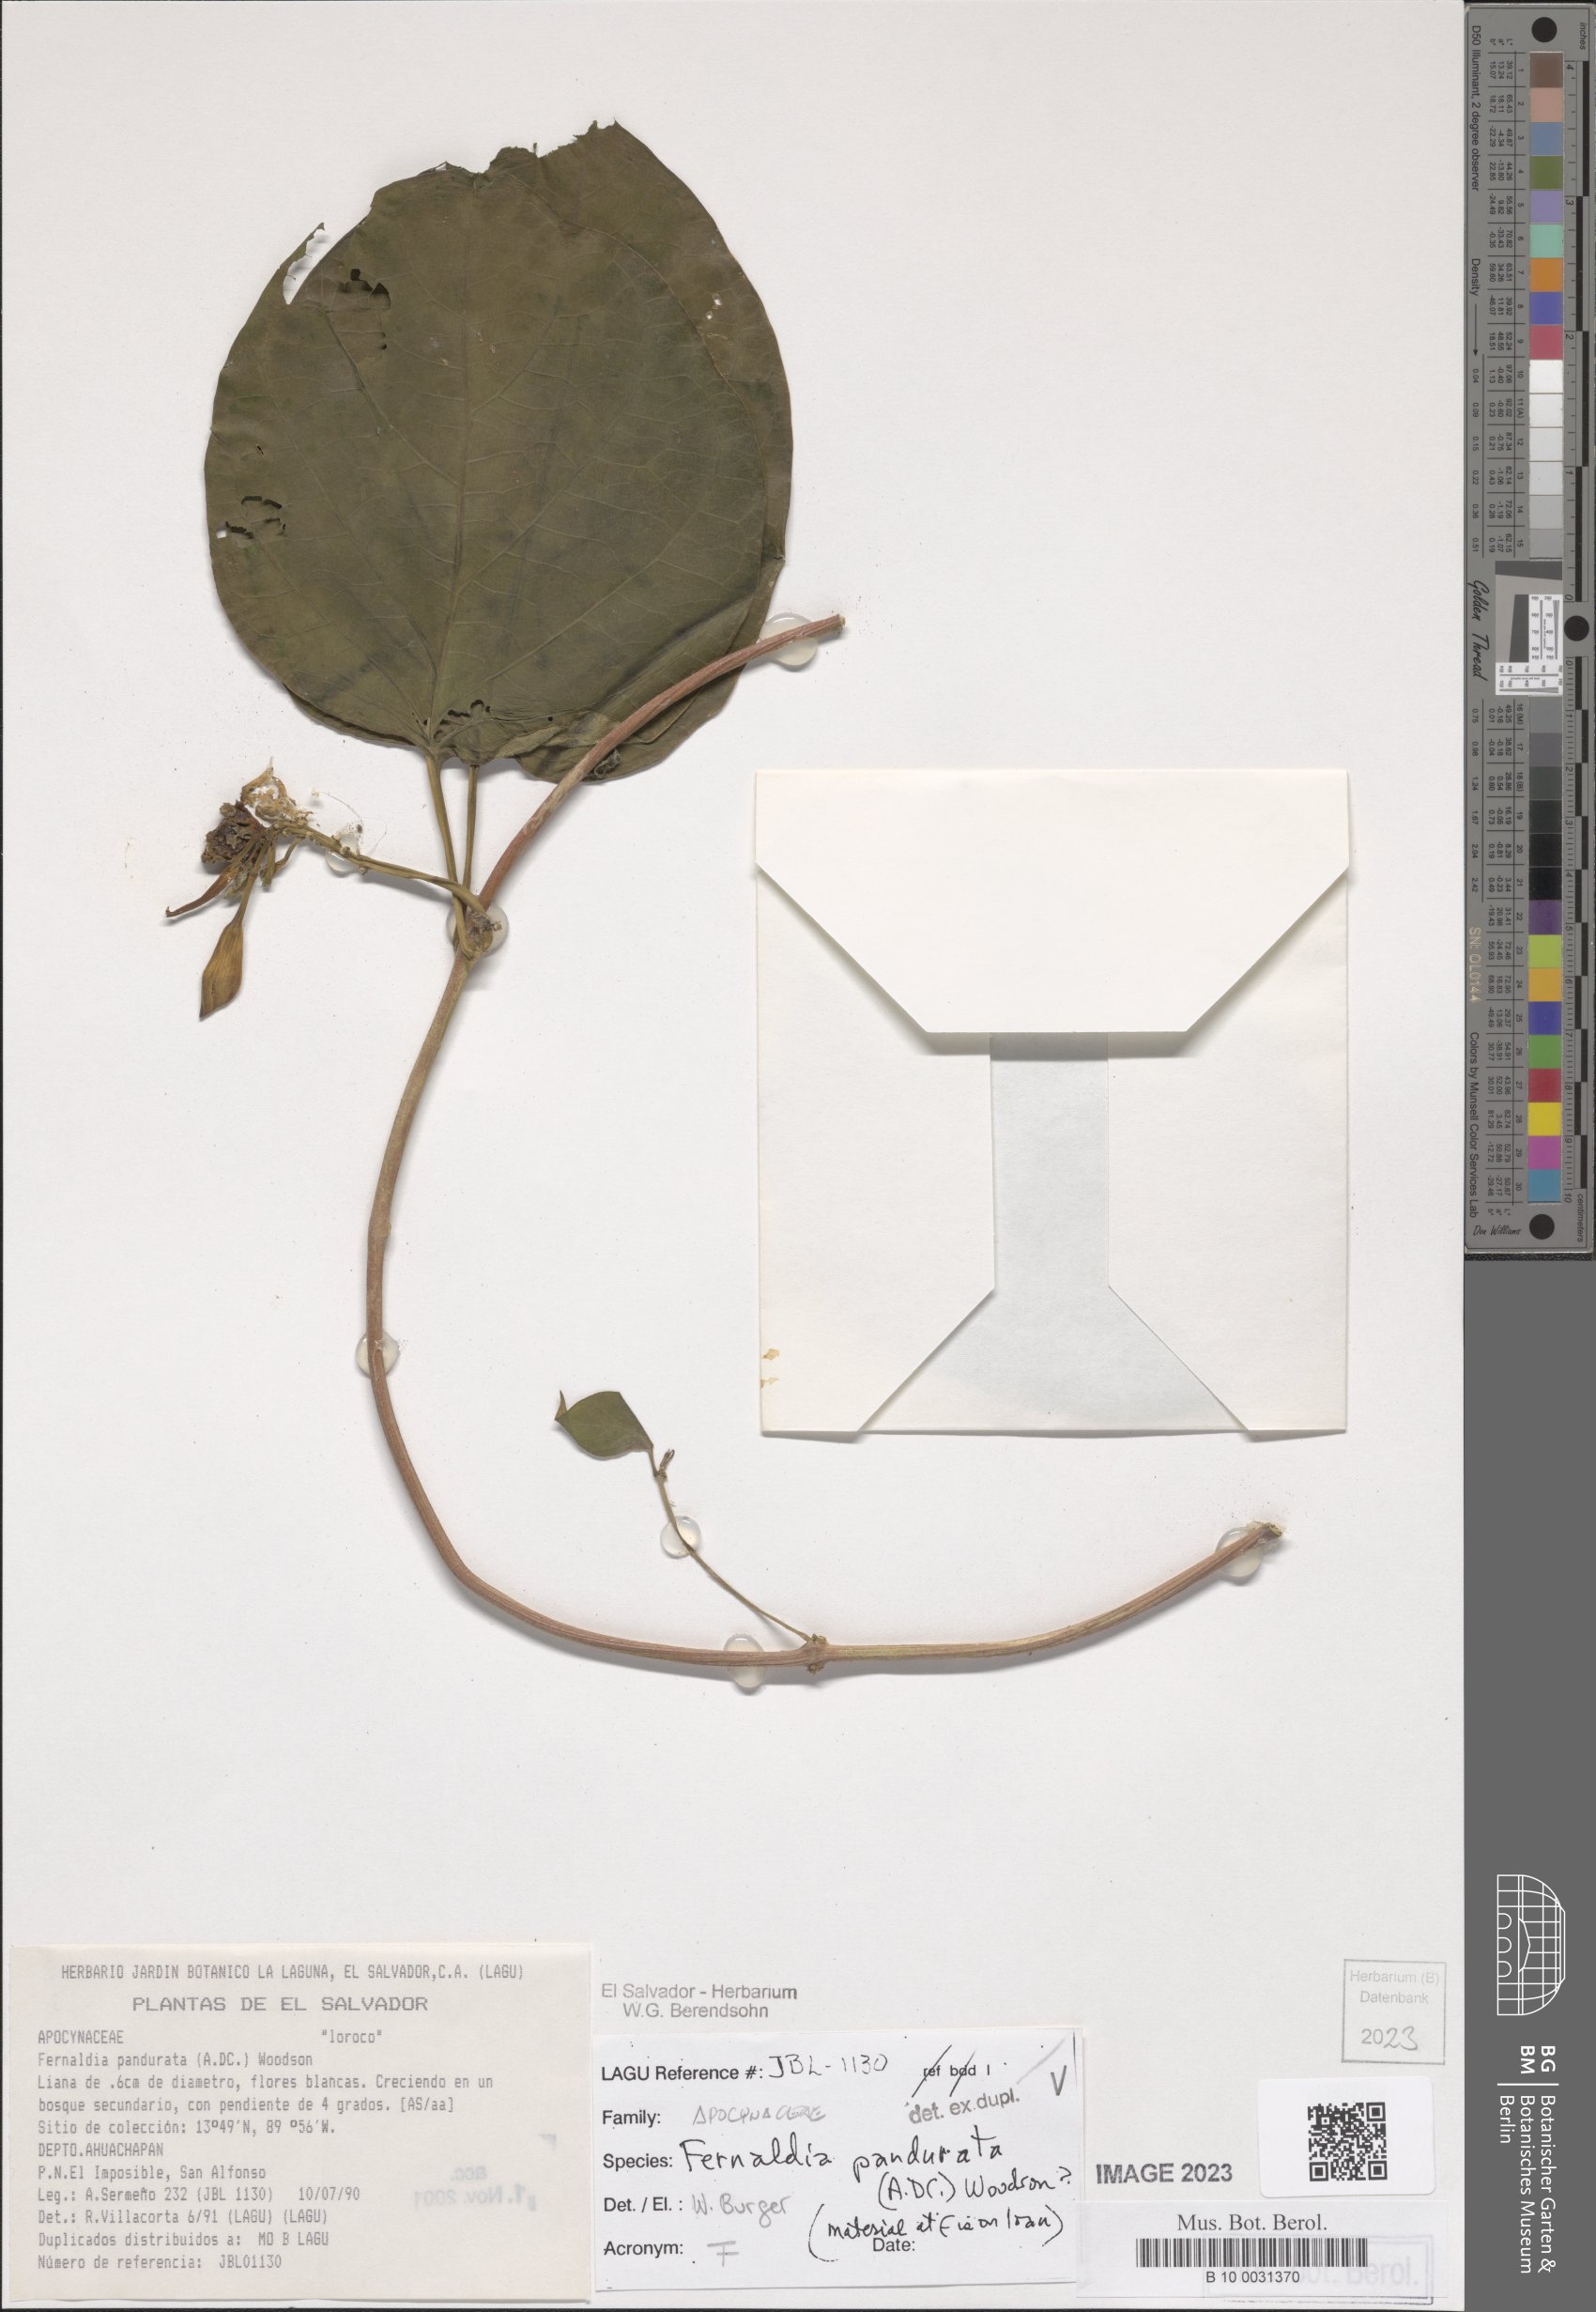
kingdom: Plantae
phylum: Tracheophyta
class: Magnoliopsida
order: Gentianales
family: Apocynaceae
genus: Echites
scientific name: Echites panduratus
